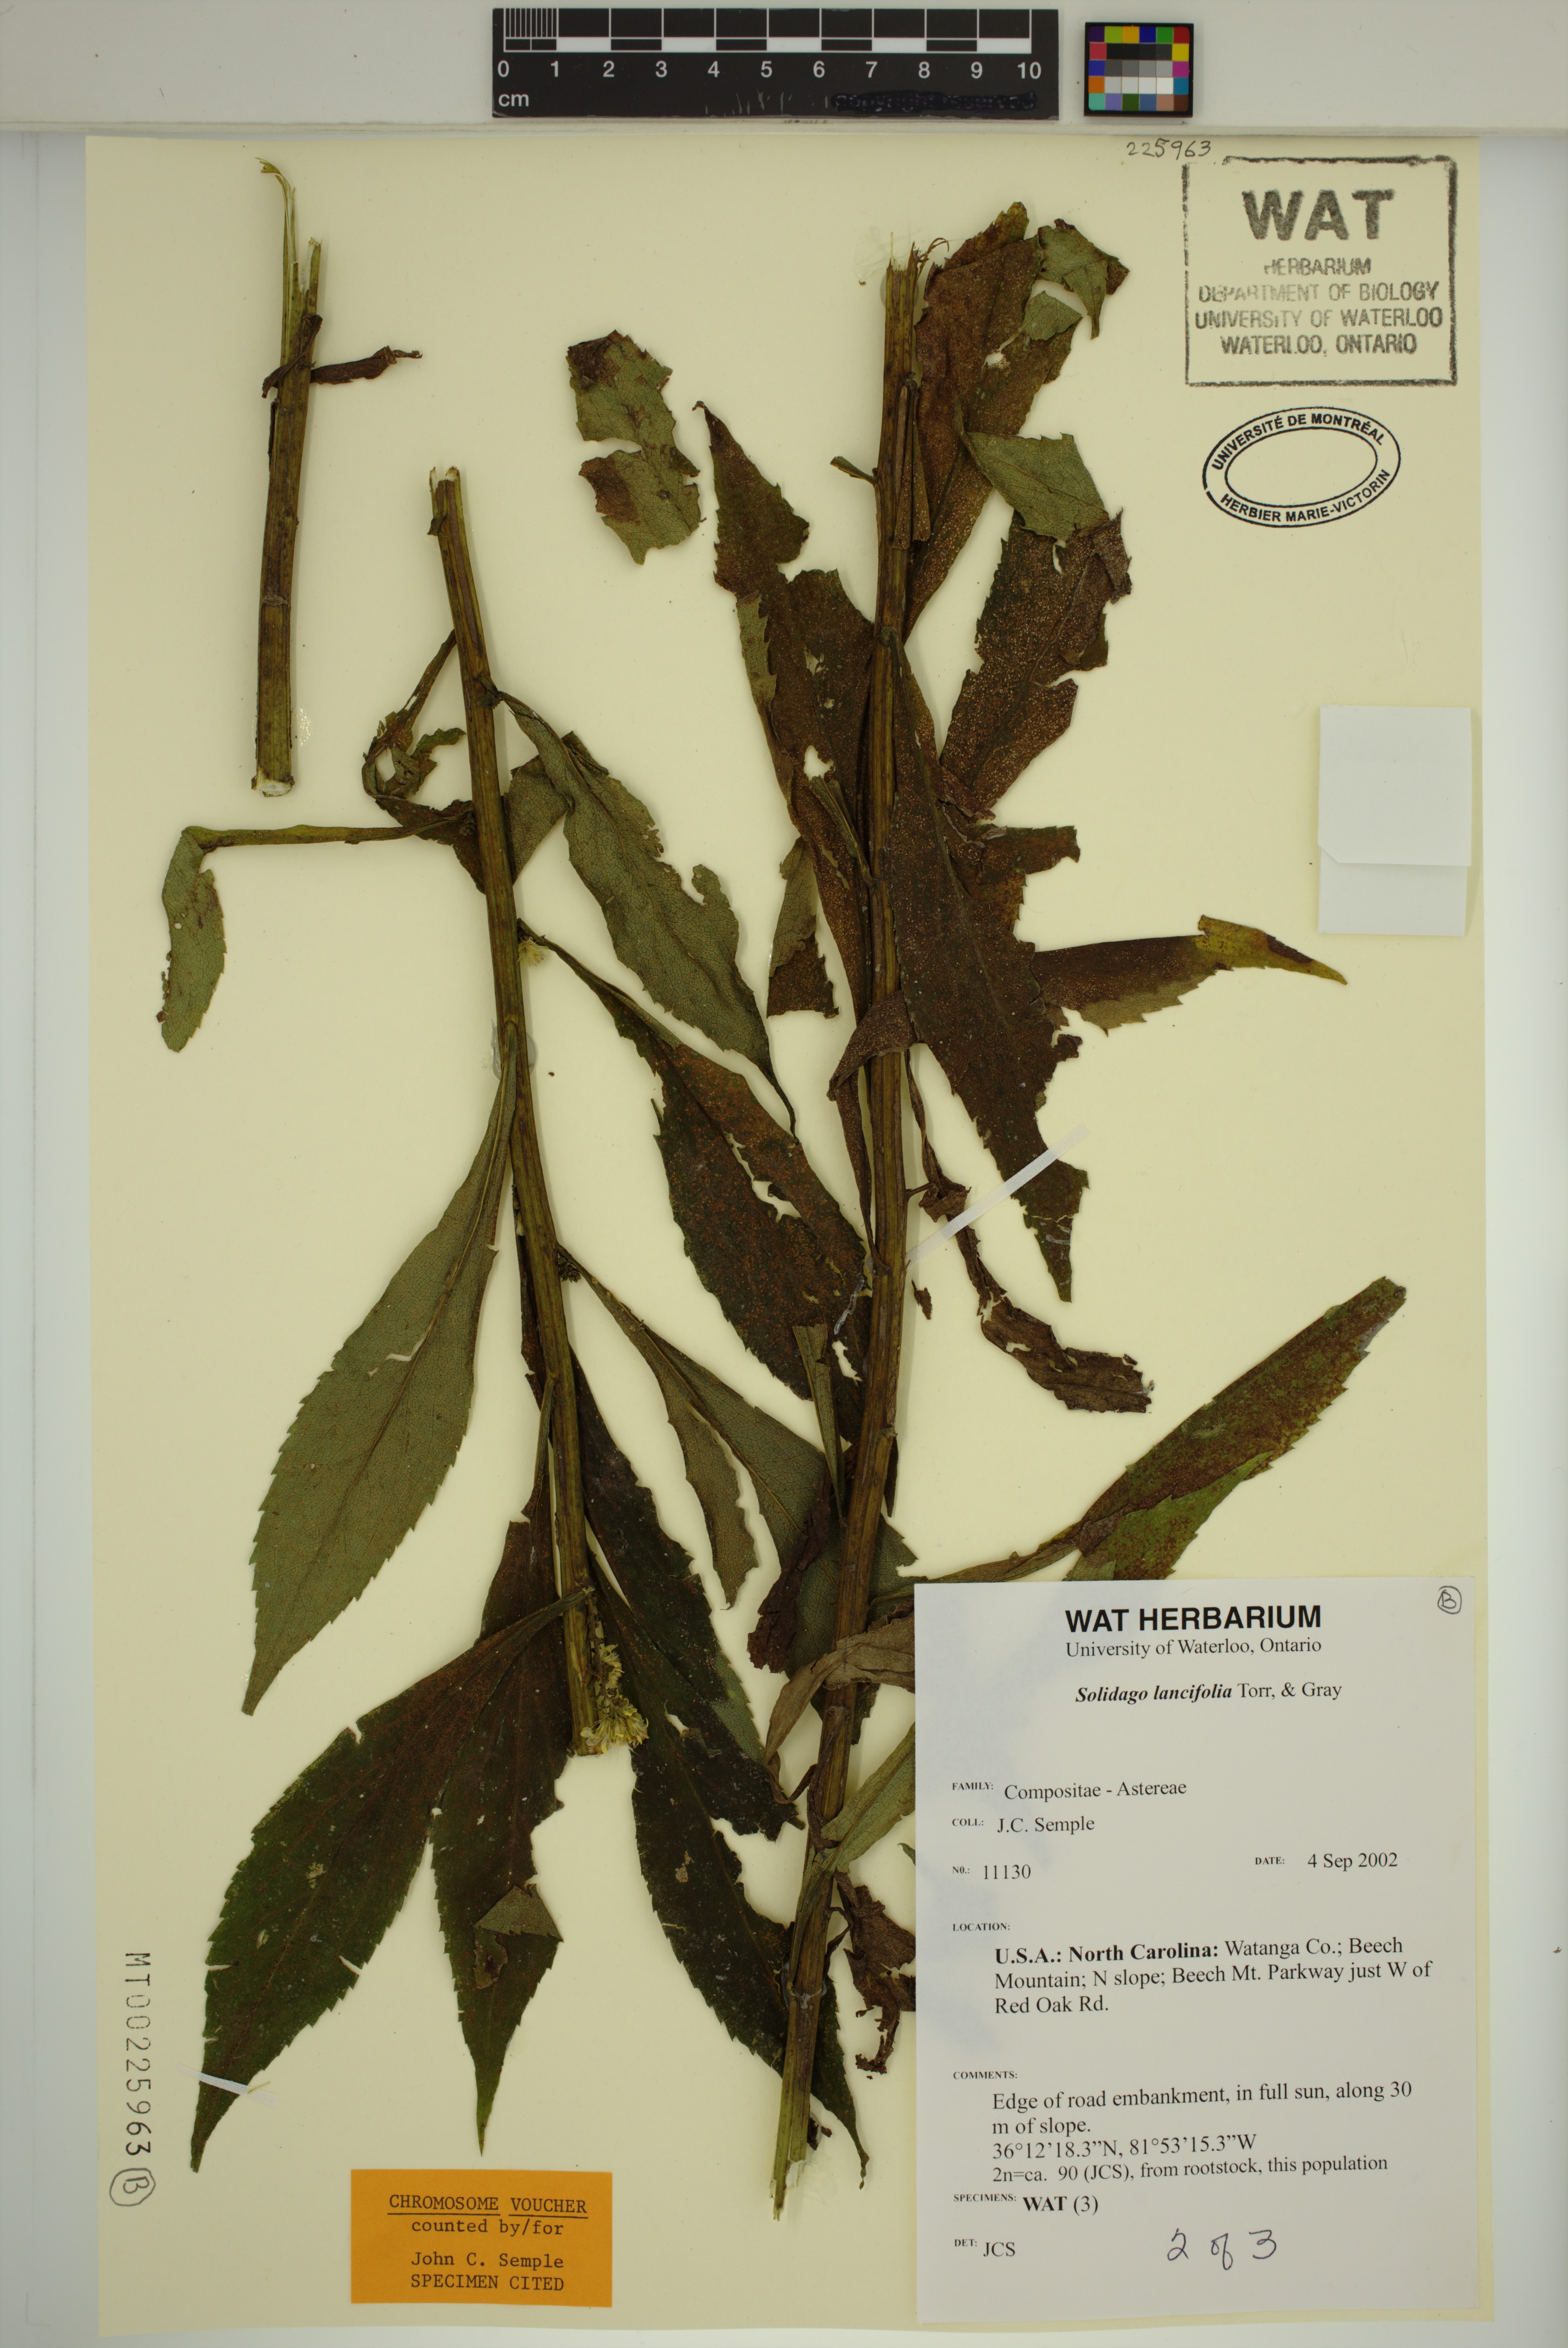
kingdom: Plantae
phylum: Tracheophyta
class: Magnoliopsida
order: Asterales
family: Asteraceae
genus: Solidago
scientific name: Solidago lancifolia
